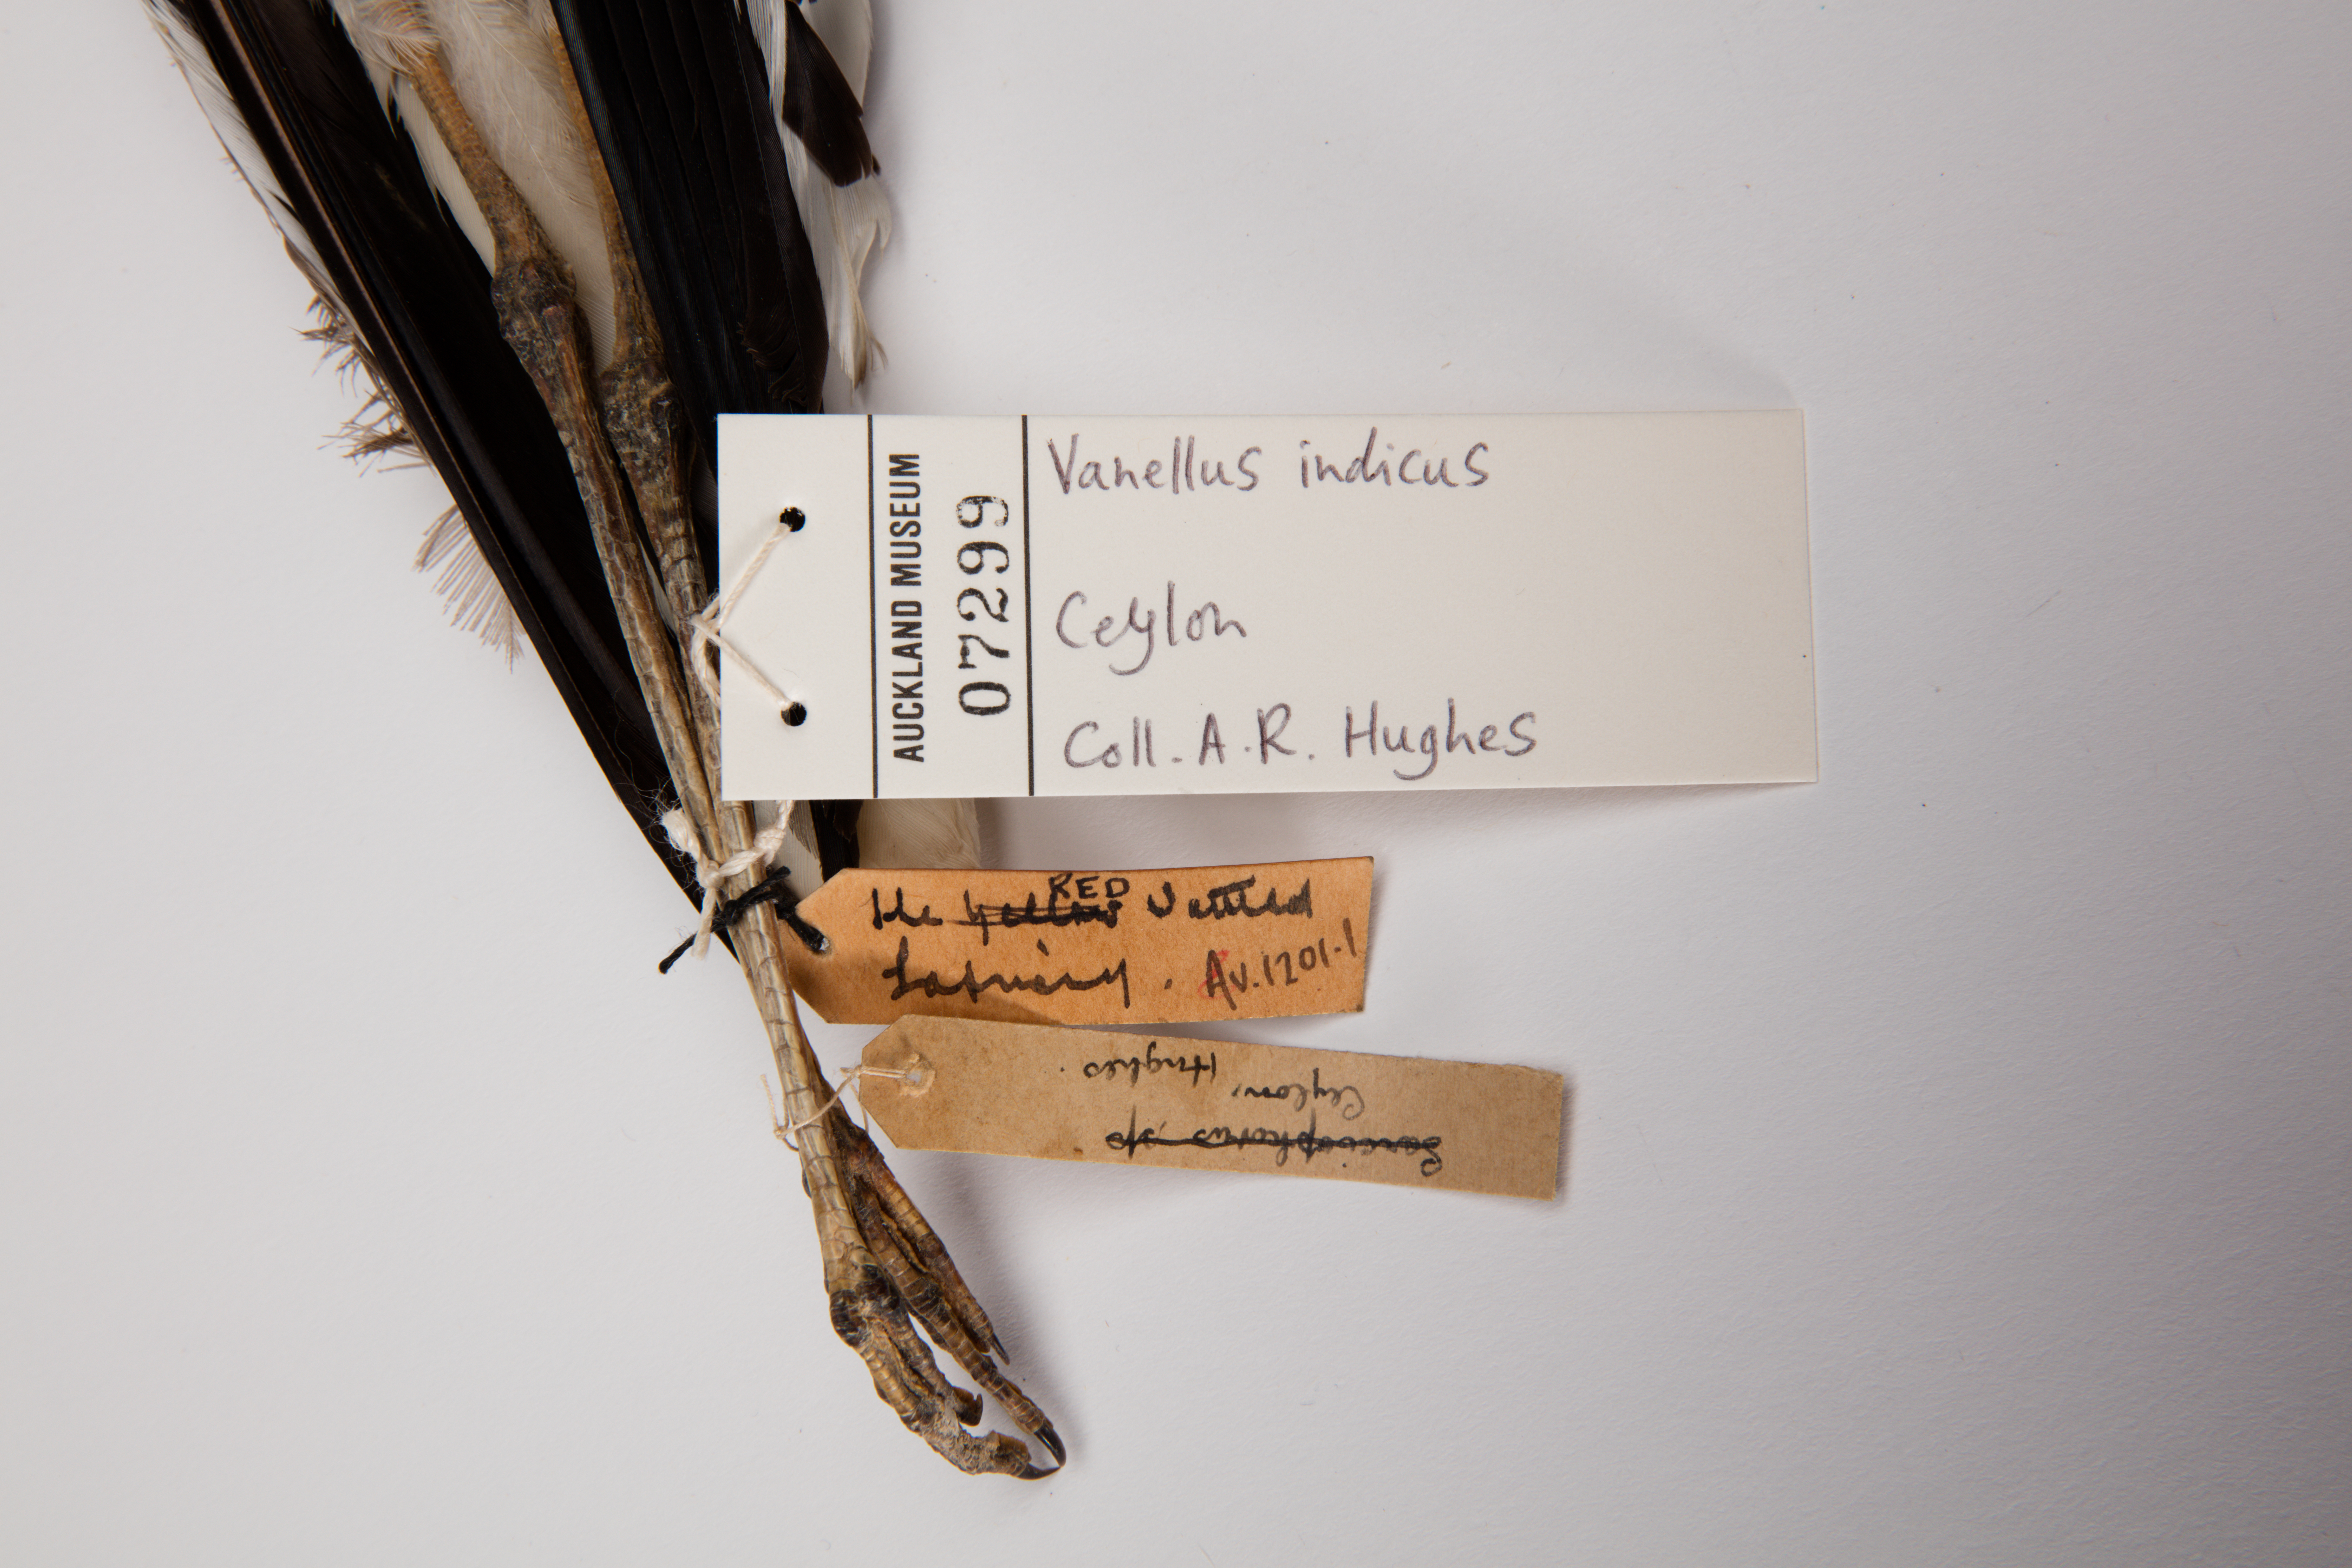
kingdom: Animalia
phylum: Chordata
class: Aves
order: Charadriiformes
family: Charadriidae
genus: Vanellus
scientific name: Vanellus indicus
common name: Red-wattled lapwing
